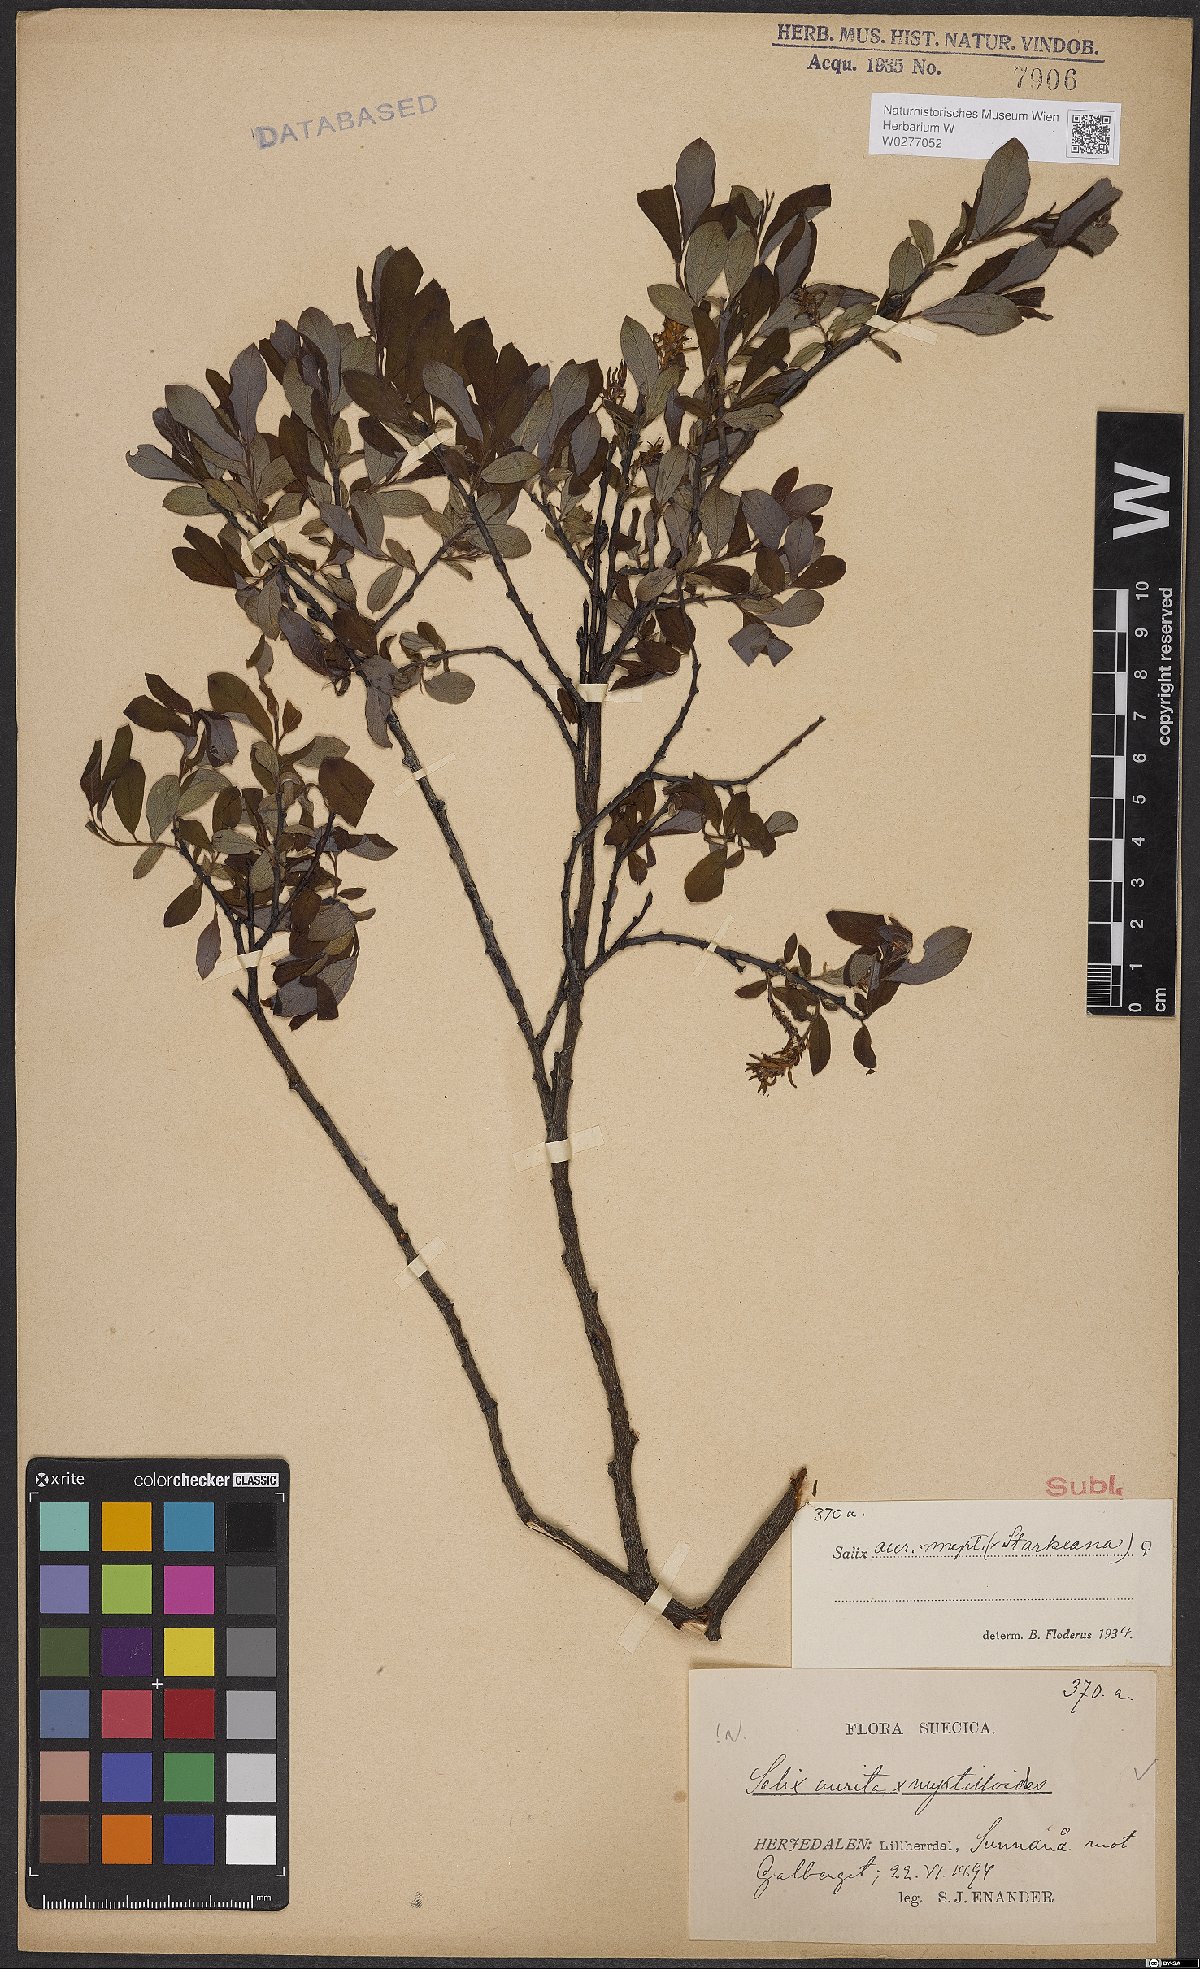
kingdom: Plantae
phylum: Tracheophyta
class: Magnoliopsida
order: Malpighiales
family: Salicaceae
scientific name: Salicaceae
